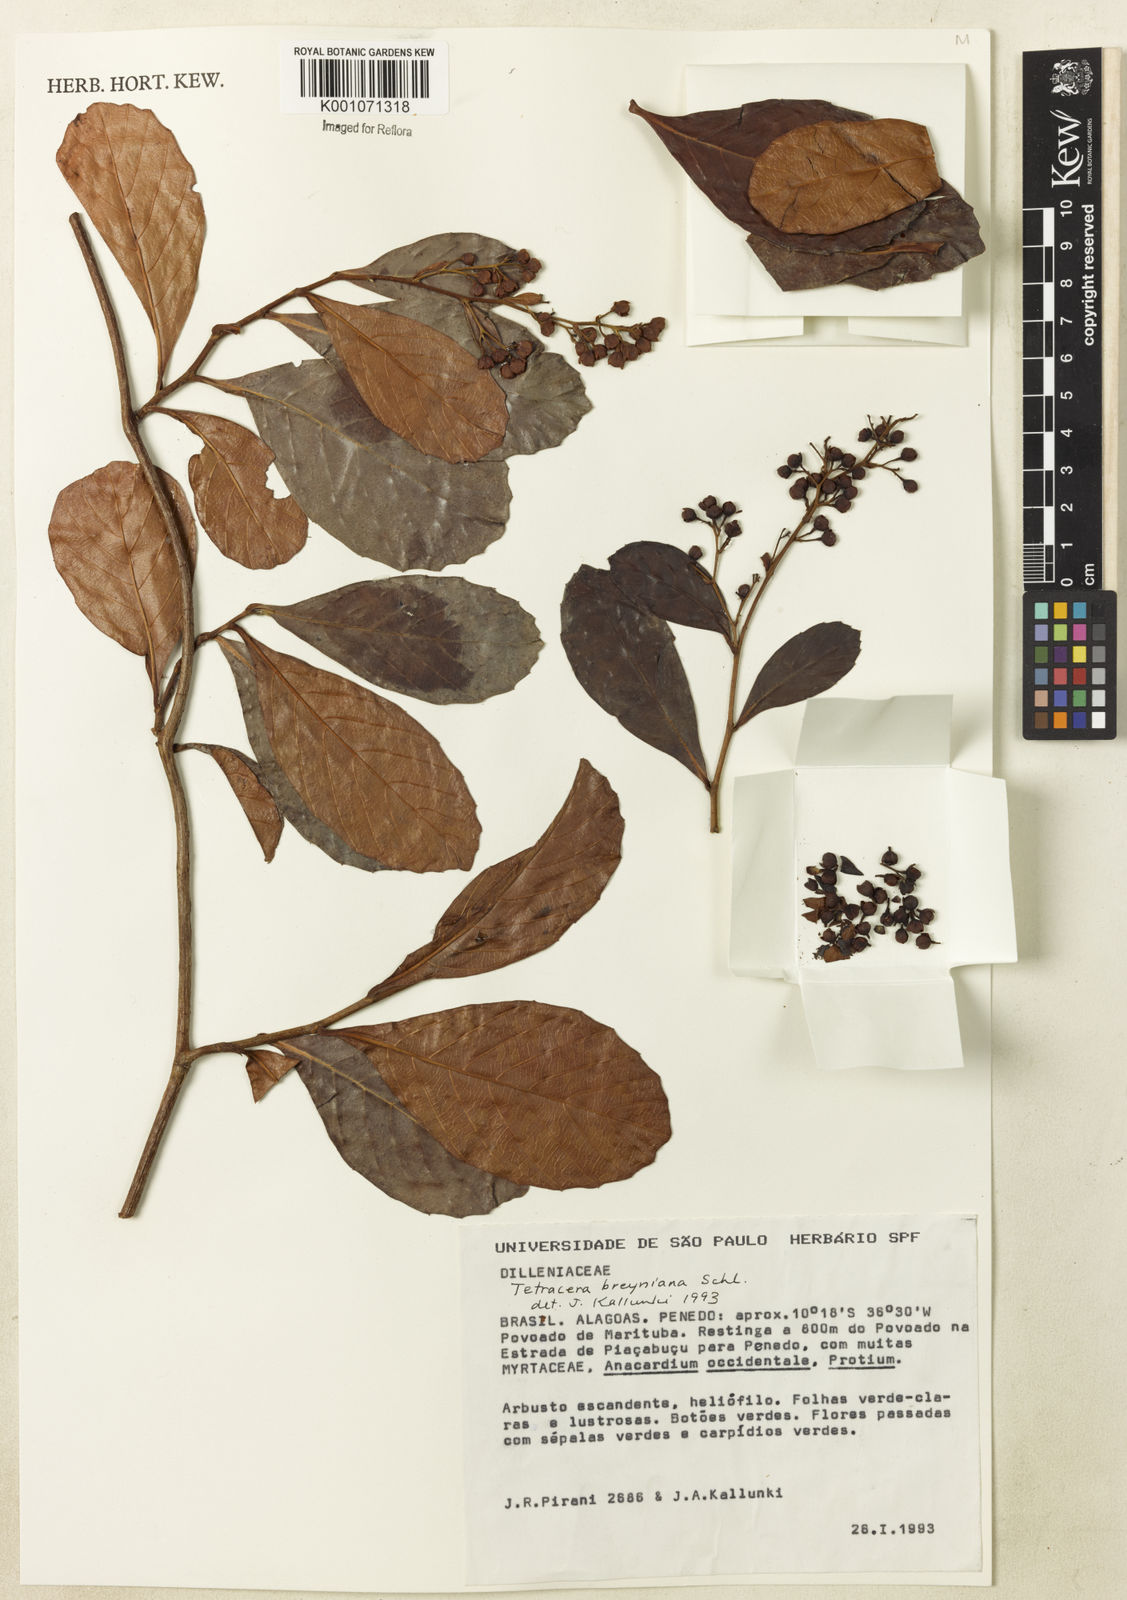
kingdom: Plantae
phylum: Tracheophyta
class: Magnoliopsida
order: Dilleniales
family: Dilleniaceae
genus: Tetracera
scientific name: Tetracera breyniana
